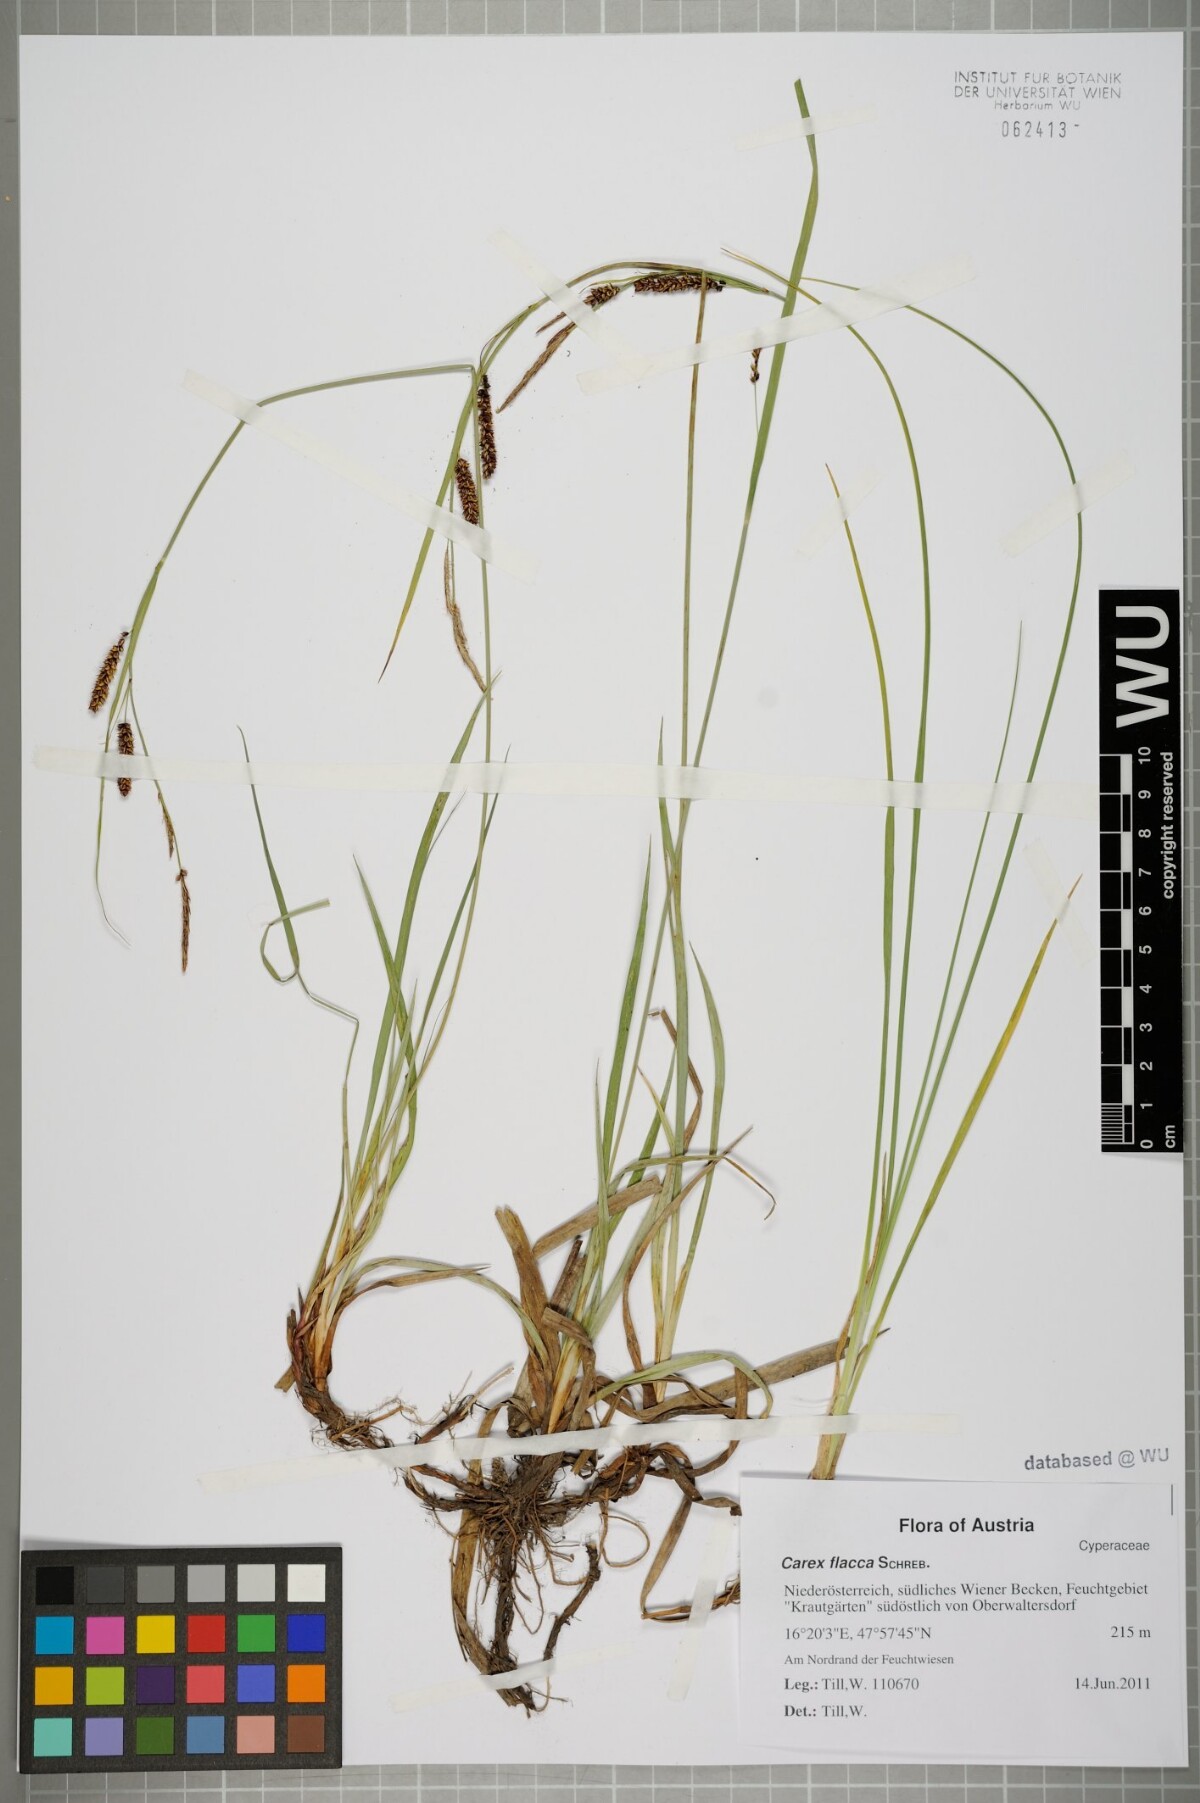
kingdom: Plantae
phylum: Tracheophyta
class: Liliopsida
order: Poales
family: Cyperaceae
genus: Carex
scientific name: Carex flacca
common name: Glaucous sedge
